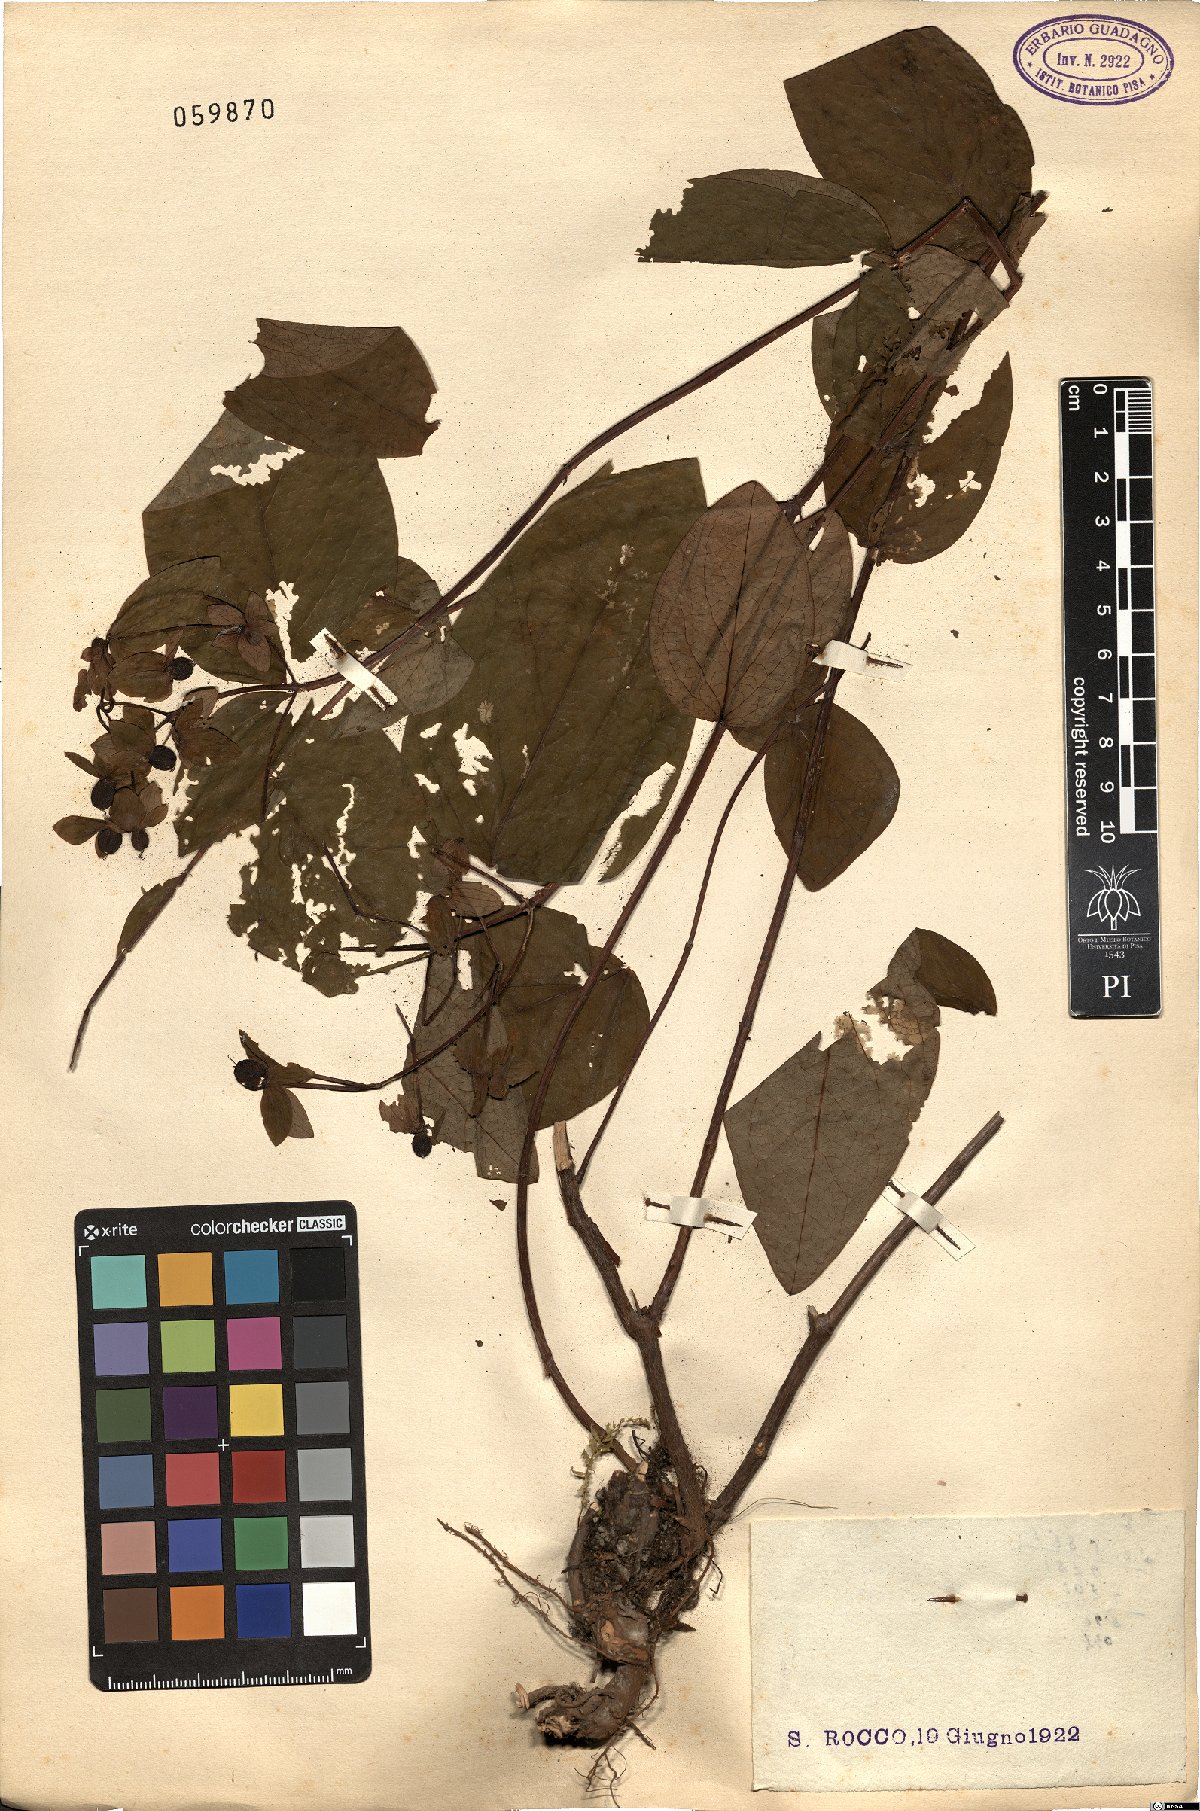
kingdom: Plantae
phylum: Tracheophyta
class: Magnoliopsida
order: Malpighiales
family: Hypericaceae
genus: Hypericum
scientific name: Hypericum androsaemum
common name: Sweet-amber
